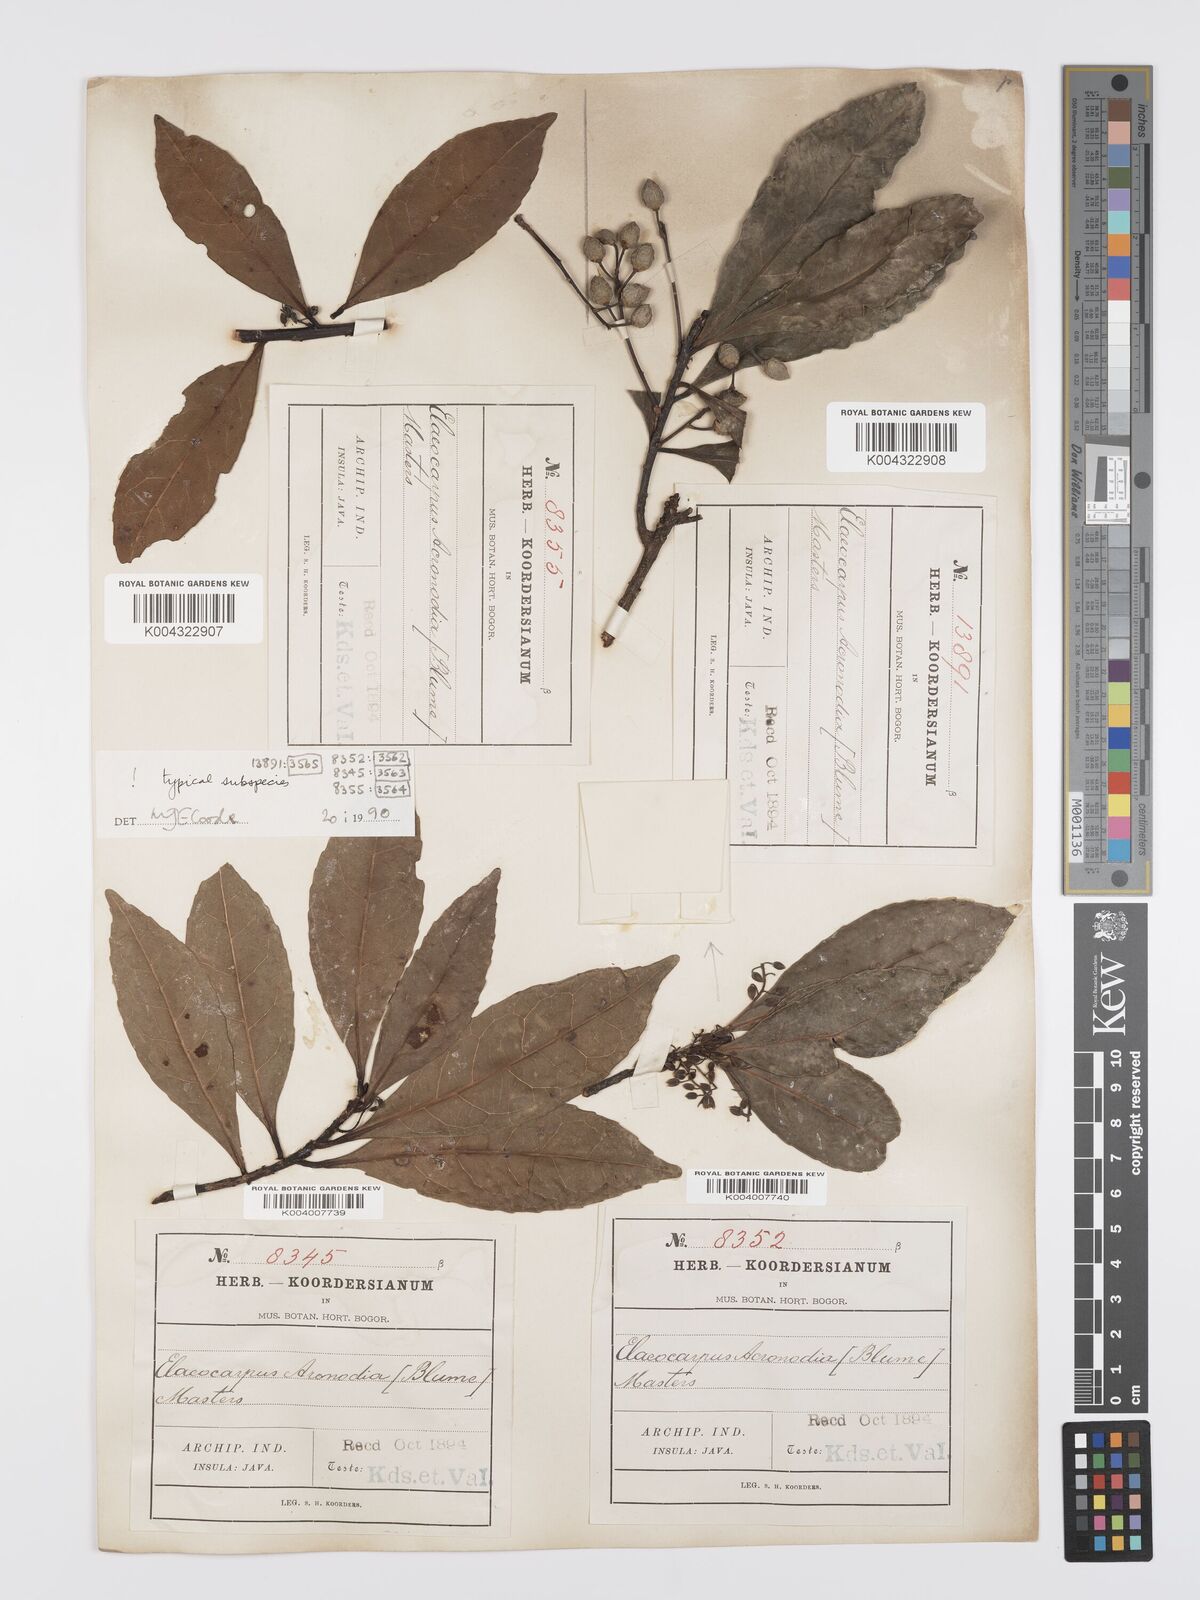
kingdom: Plantae
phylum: Tracheophyta
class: Magnoliopsida
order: Oxalidales
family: Elaeocarpaceae
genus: Elaeocarpus
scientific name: Elaeocarpus acronodia
